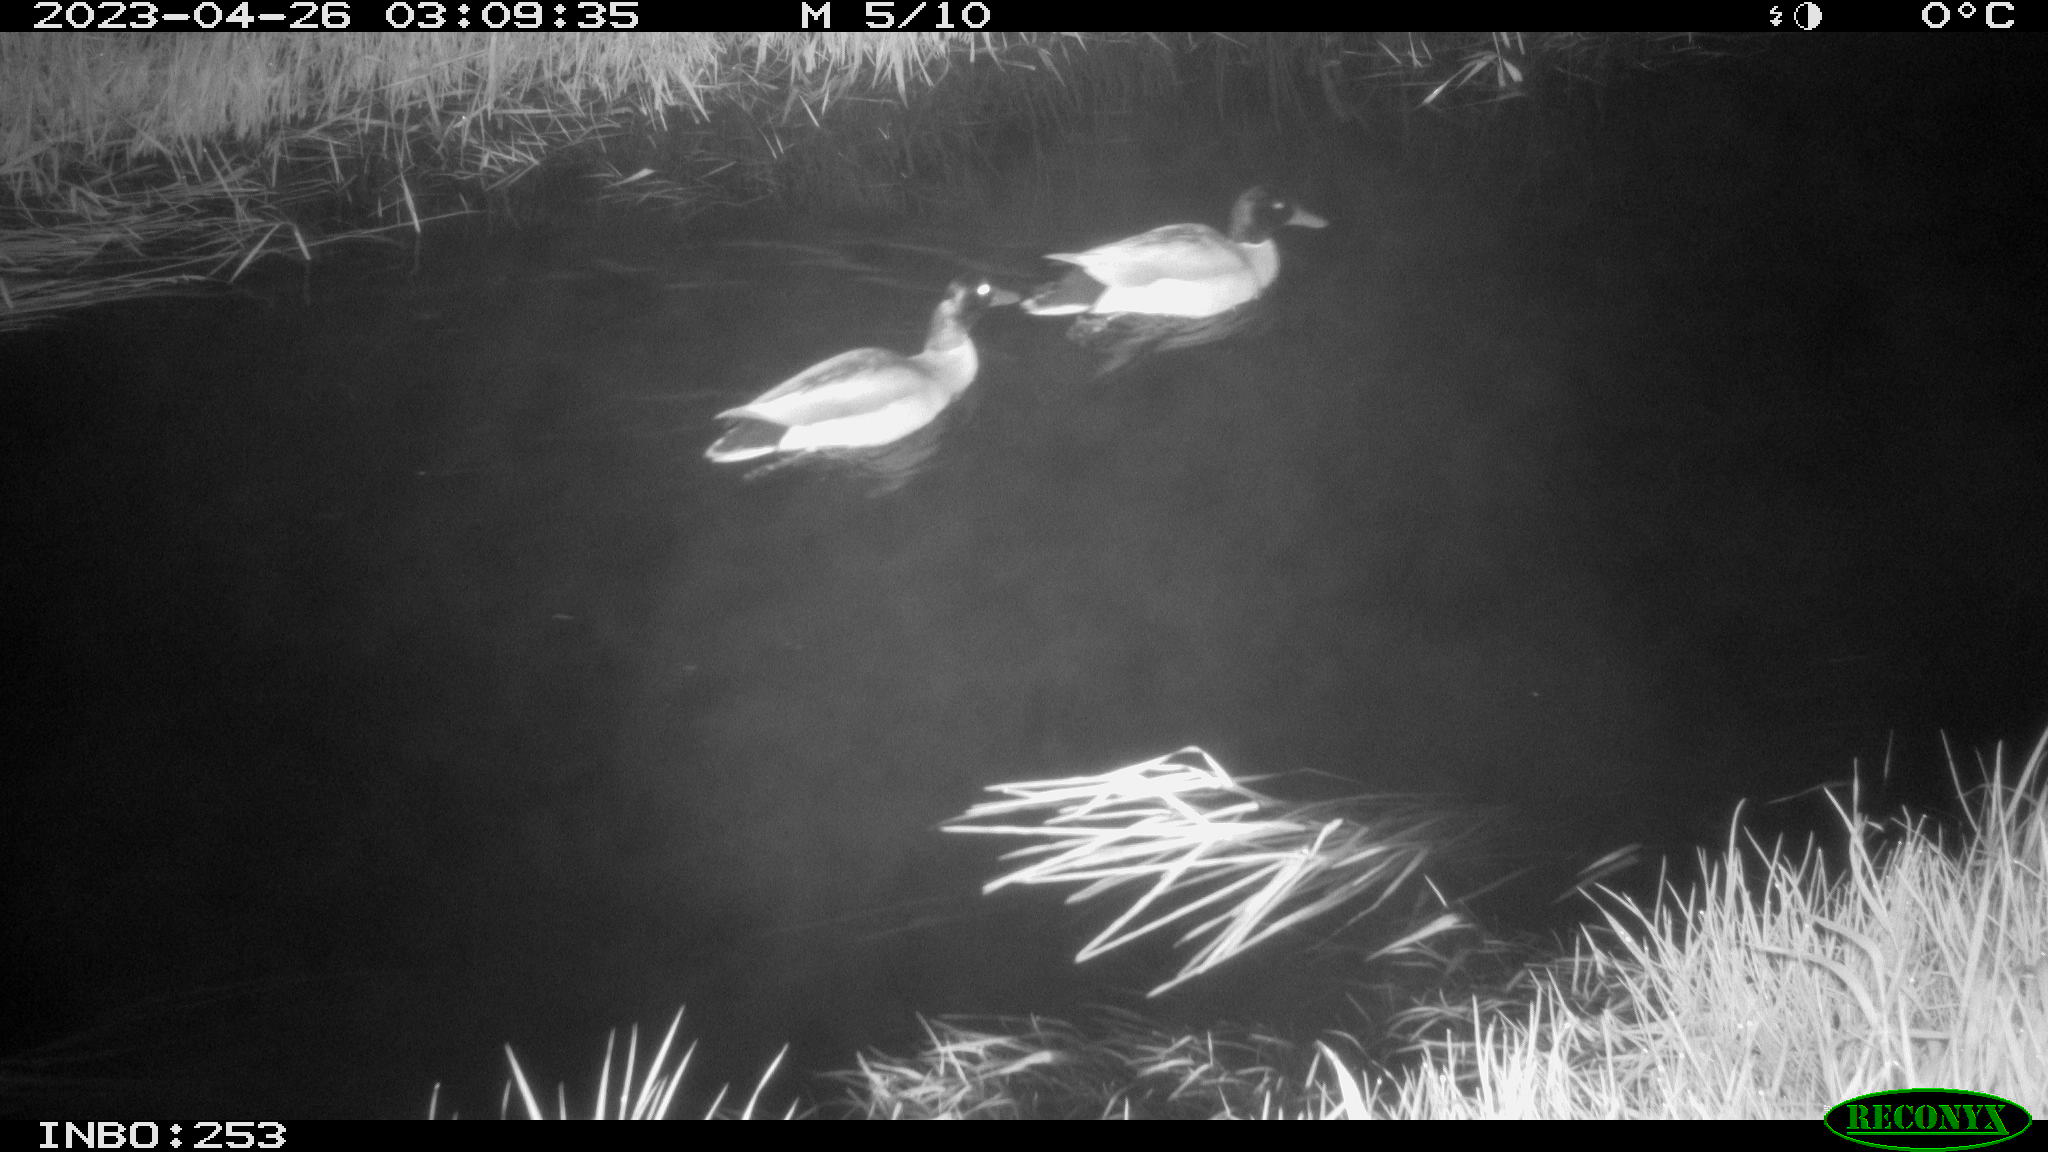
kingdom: Animalia
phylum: Chordata
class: Aves
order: Anseriformes
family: Anatidae
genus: Anas
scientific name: Anas
